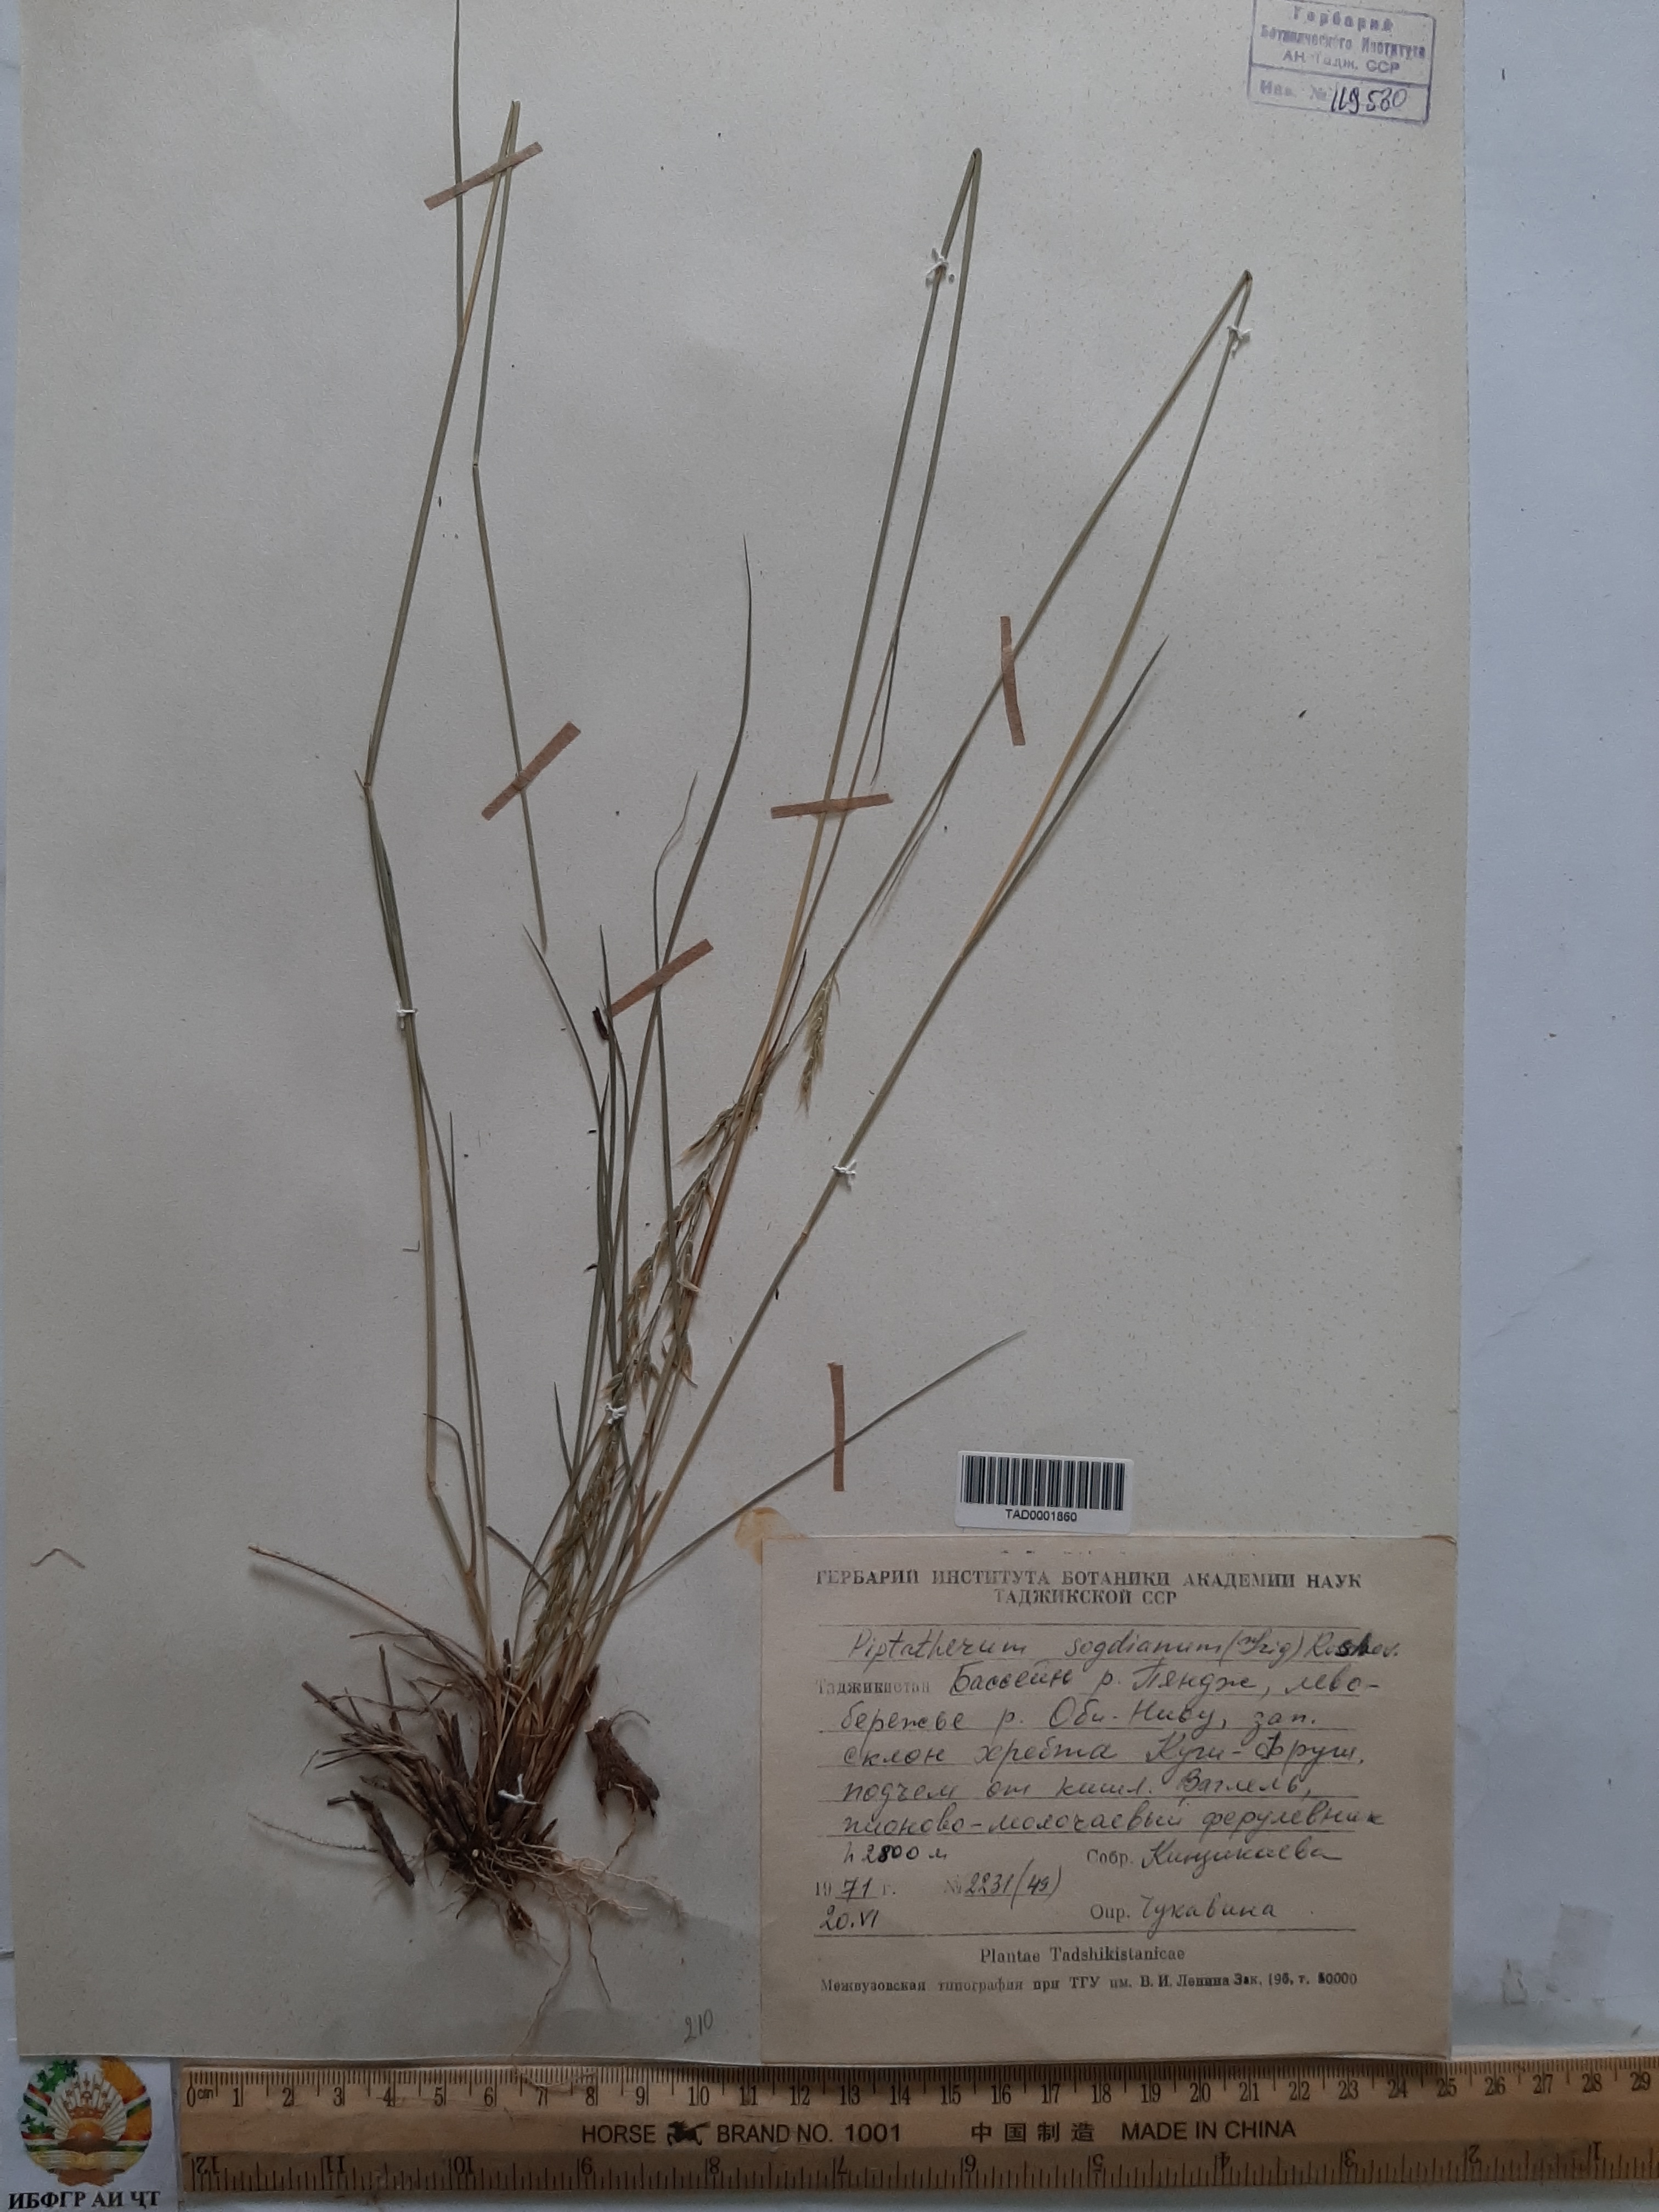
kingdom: Plantae
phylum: Tracheophyta
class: Liliopsida
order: Poales
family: Poaceae
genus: Piptatherum
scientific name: Piptatherum sogdianum
